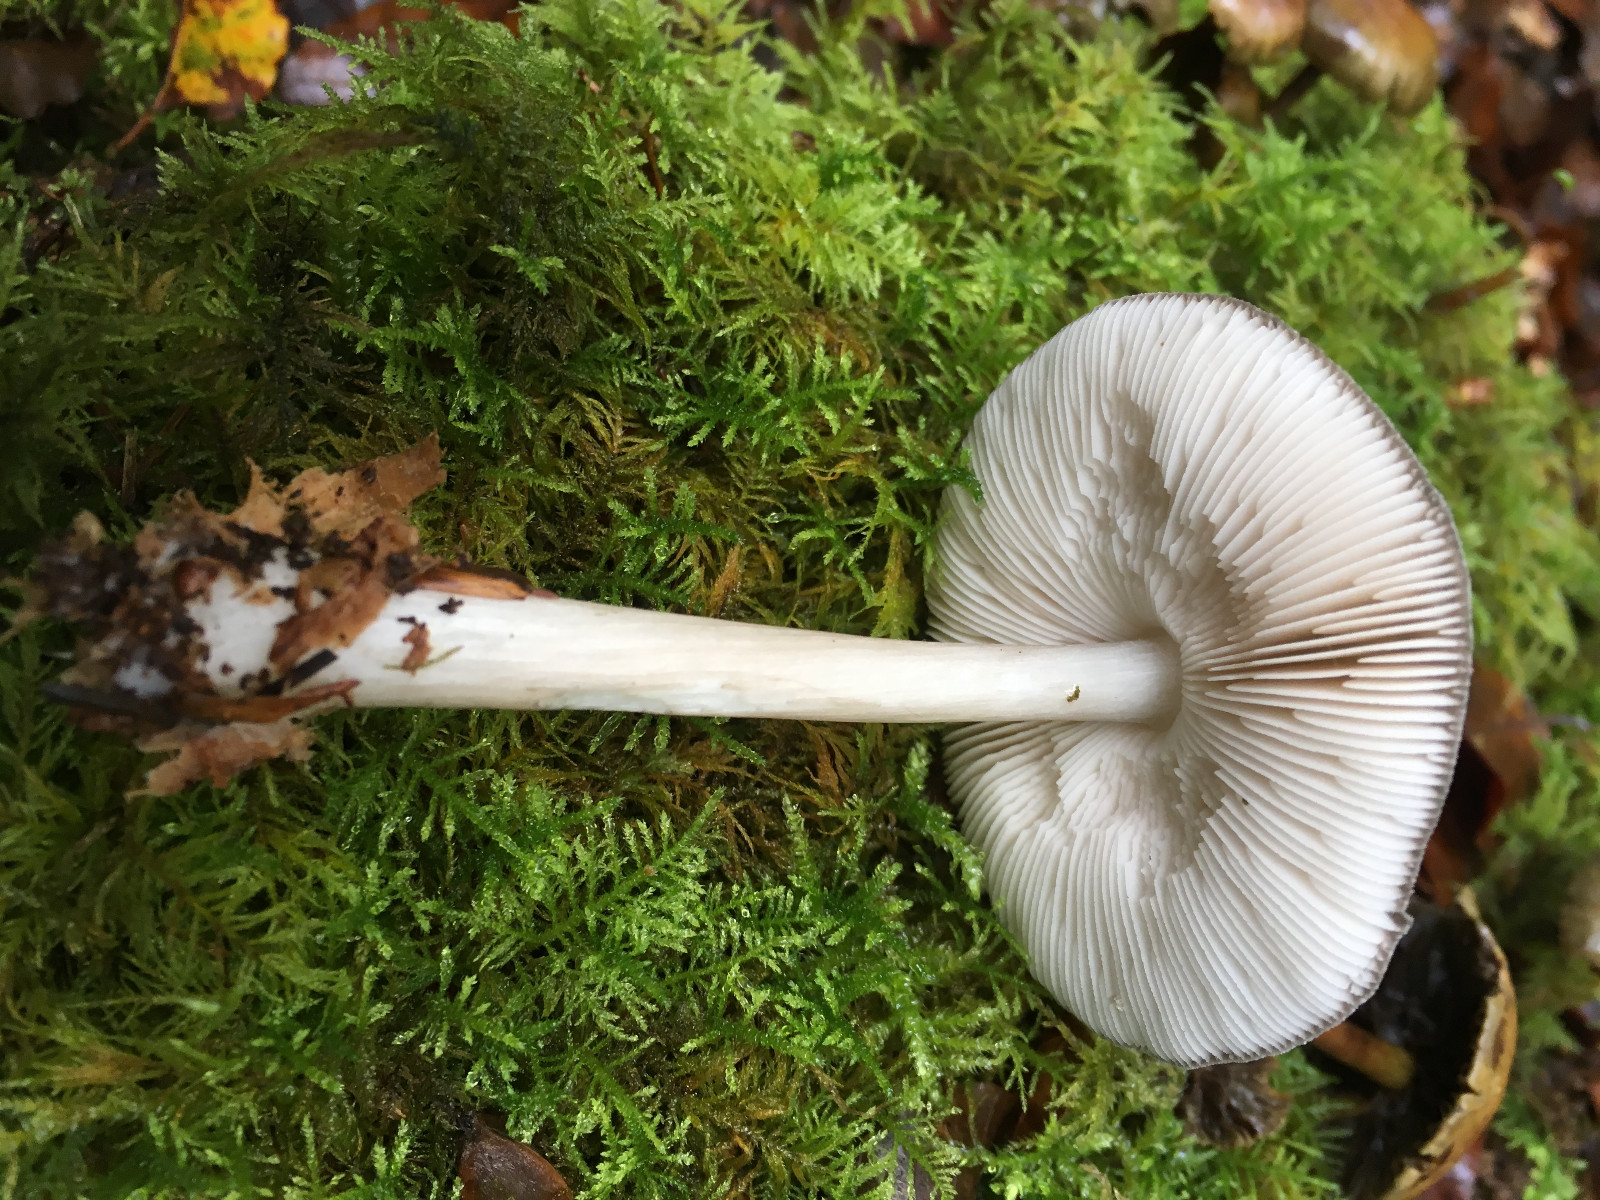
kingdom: Fungi
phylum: Basidiomycota
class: Agaricomycetes
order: Agaricales
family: Pluteaceae
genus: Pluteus
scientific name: Pluteus
